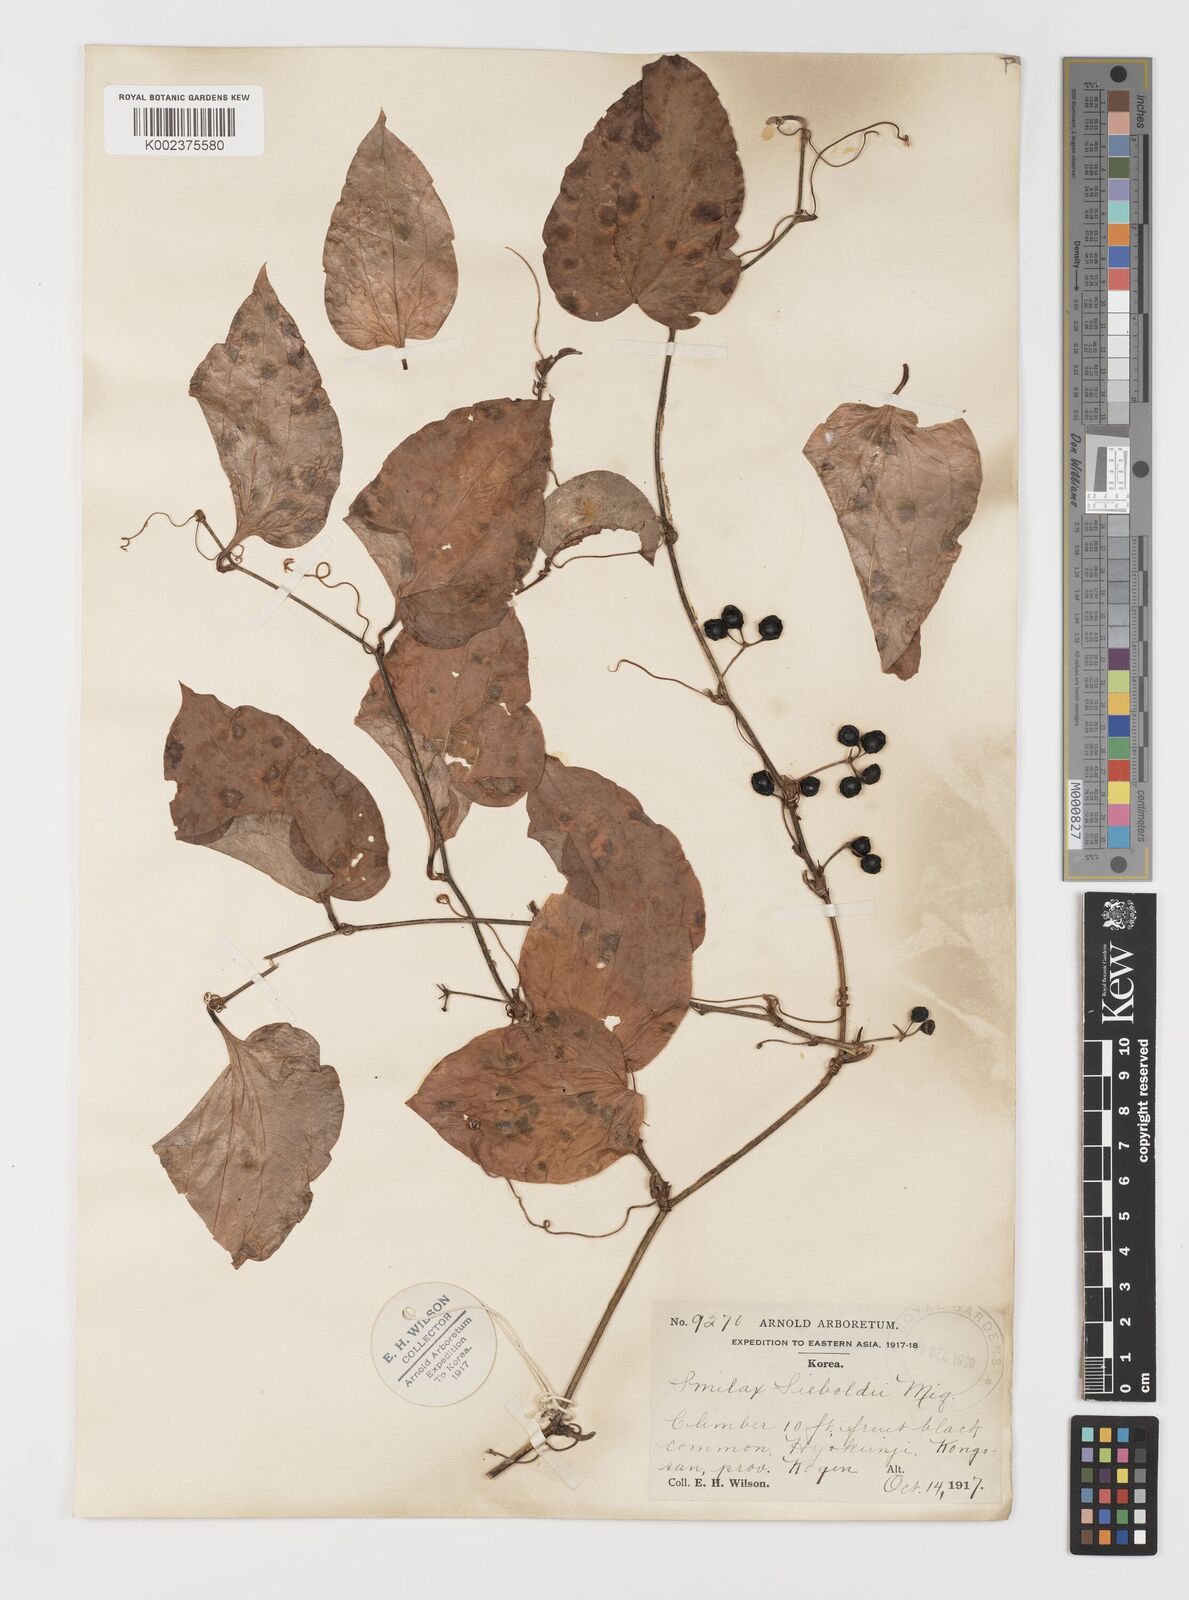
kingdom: Plantae
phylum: Tracheophyta
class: Liliopsida
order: Liliales
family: Smilacaceae
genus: Smilax
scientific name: Smilax sieboldii
